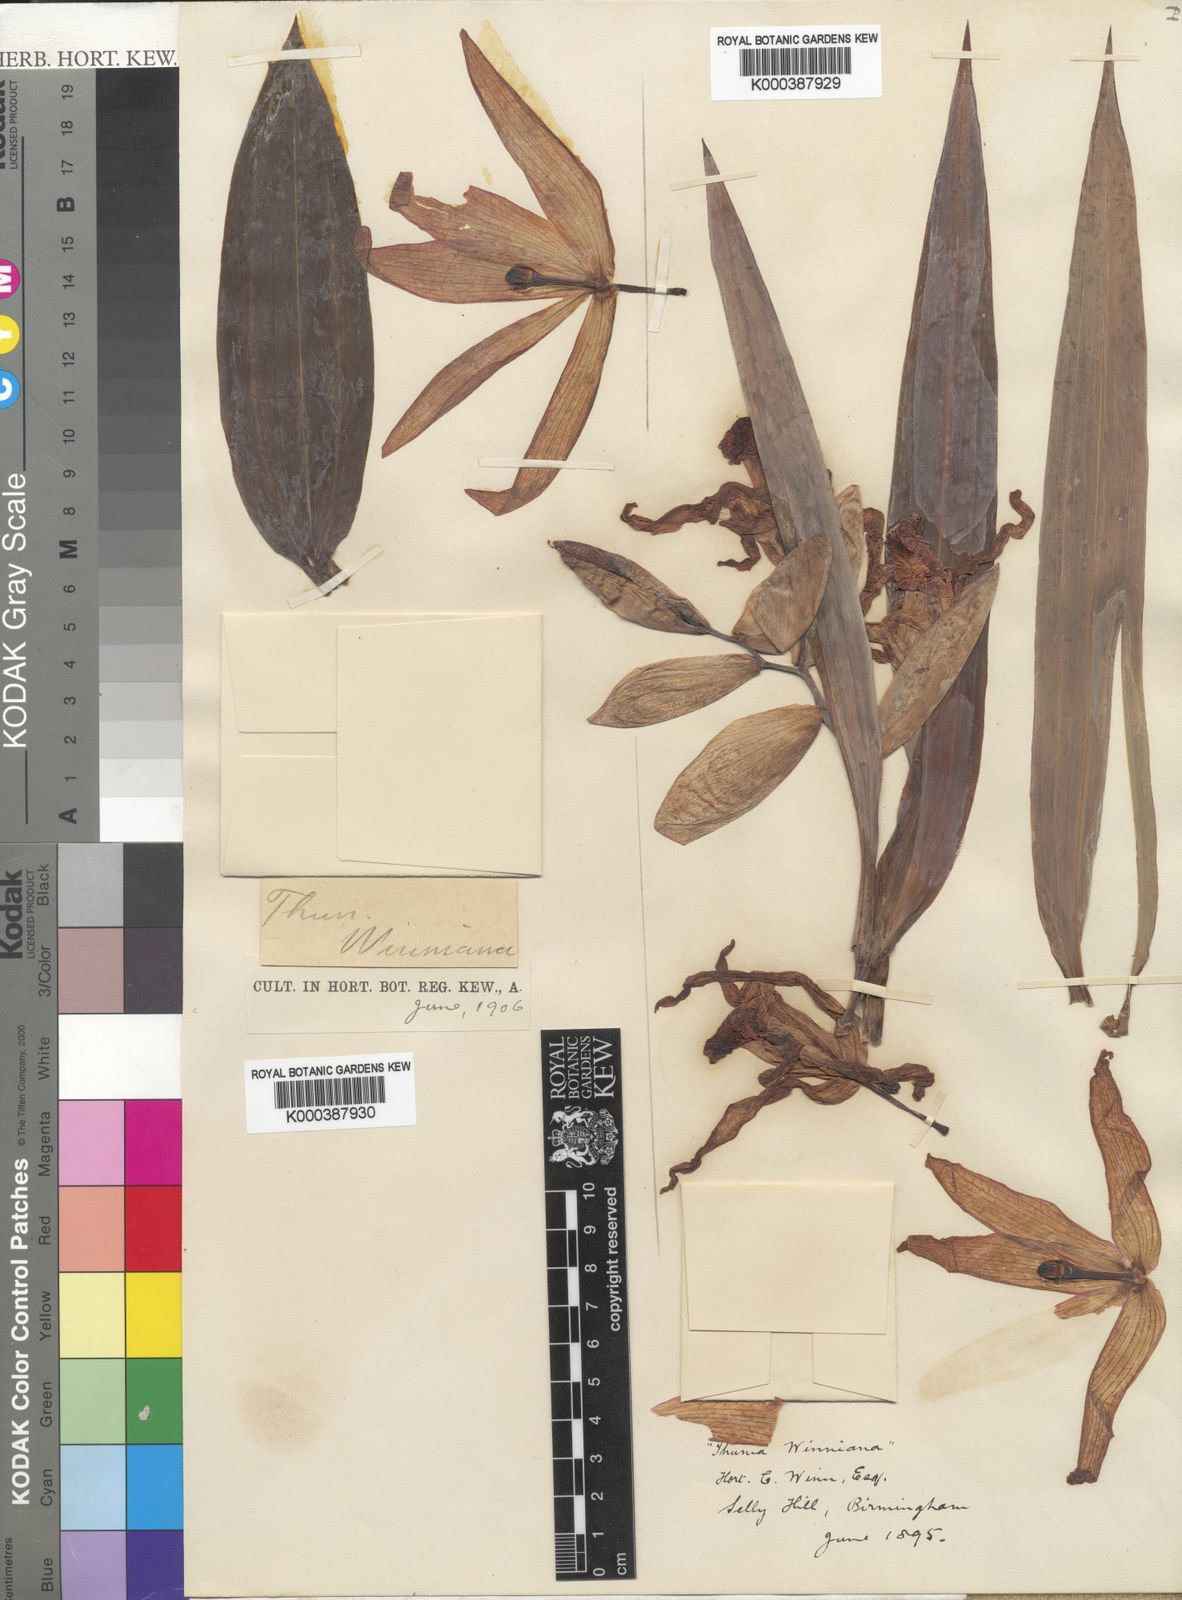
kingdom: Plantae
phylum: Tracheophyta
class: Liliopsida
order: Asparagales
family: Orchidaceae
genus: Thunia
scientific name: Thunia bensoniae
